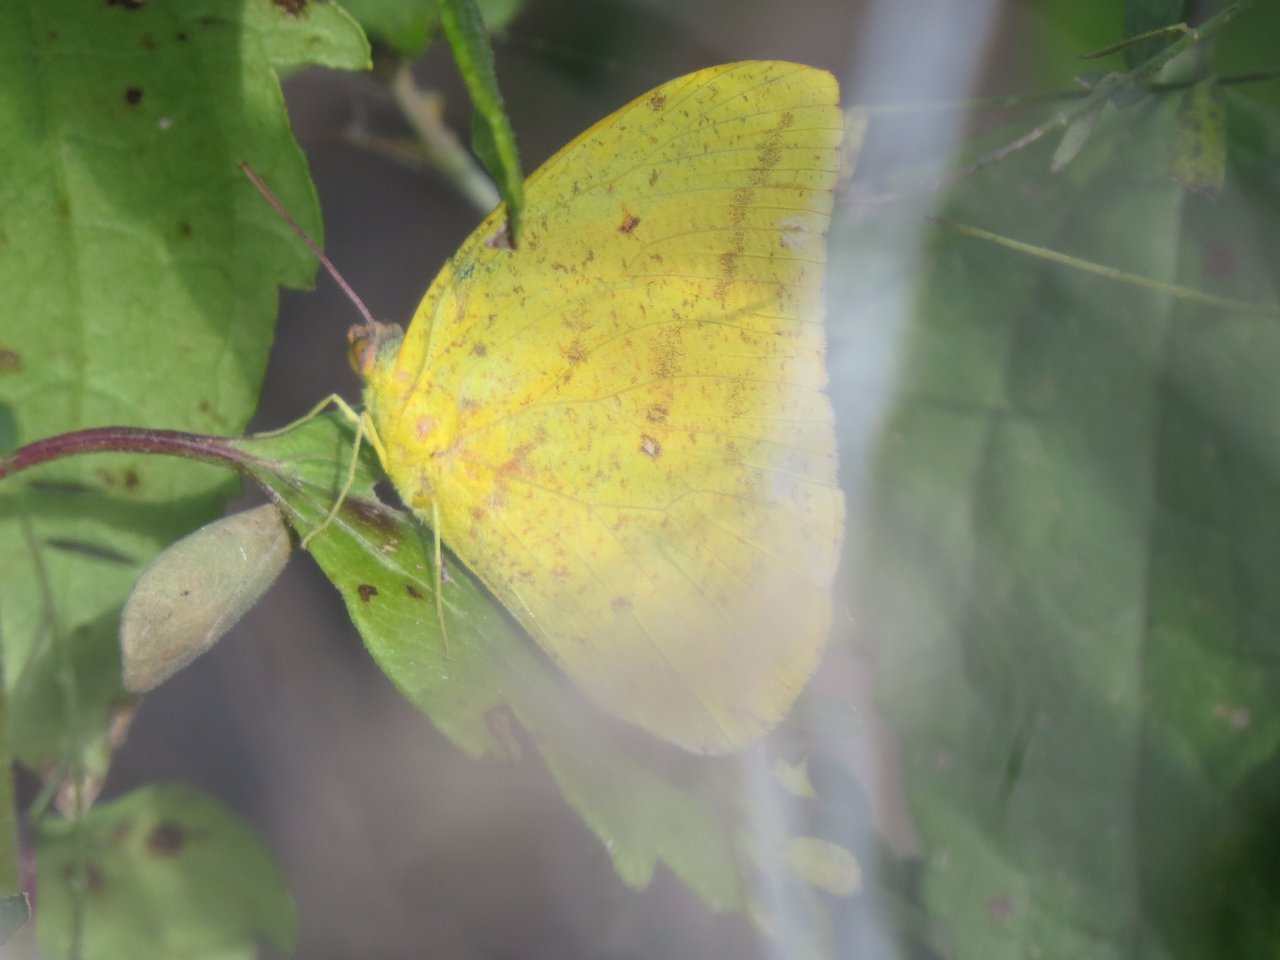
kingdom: Animalia
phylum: Arthropoda
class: Insecta
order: Lepidoptera
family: Pieridae
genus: Phoebis
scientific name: Phoebis sennae
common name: Cloudless Sulphur
